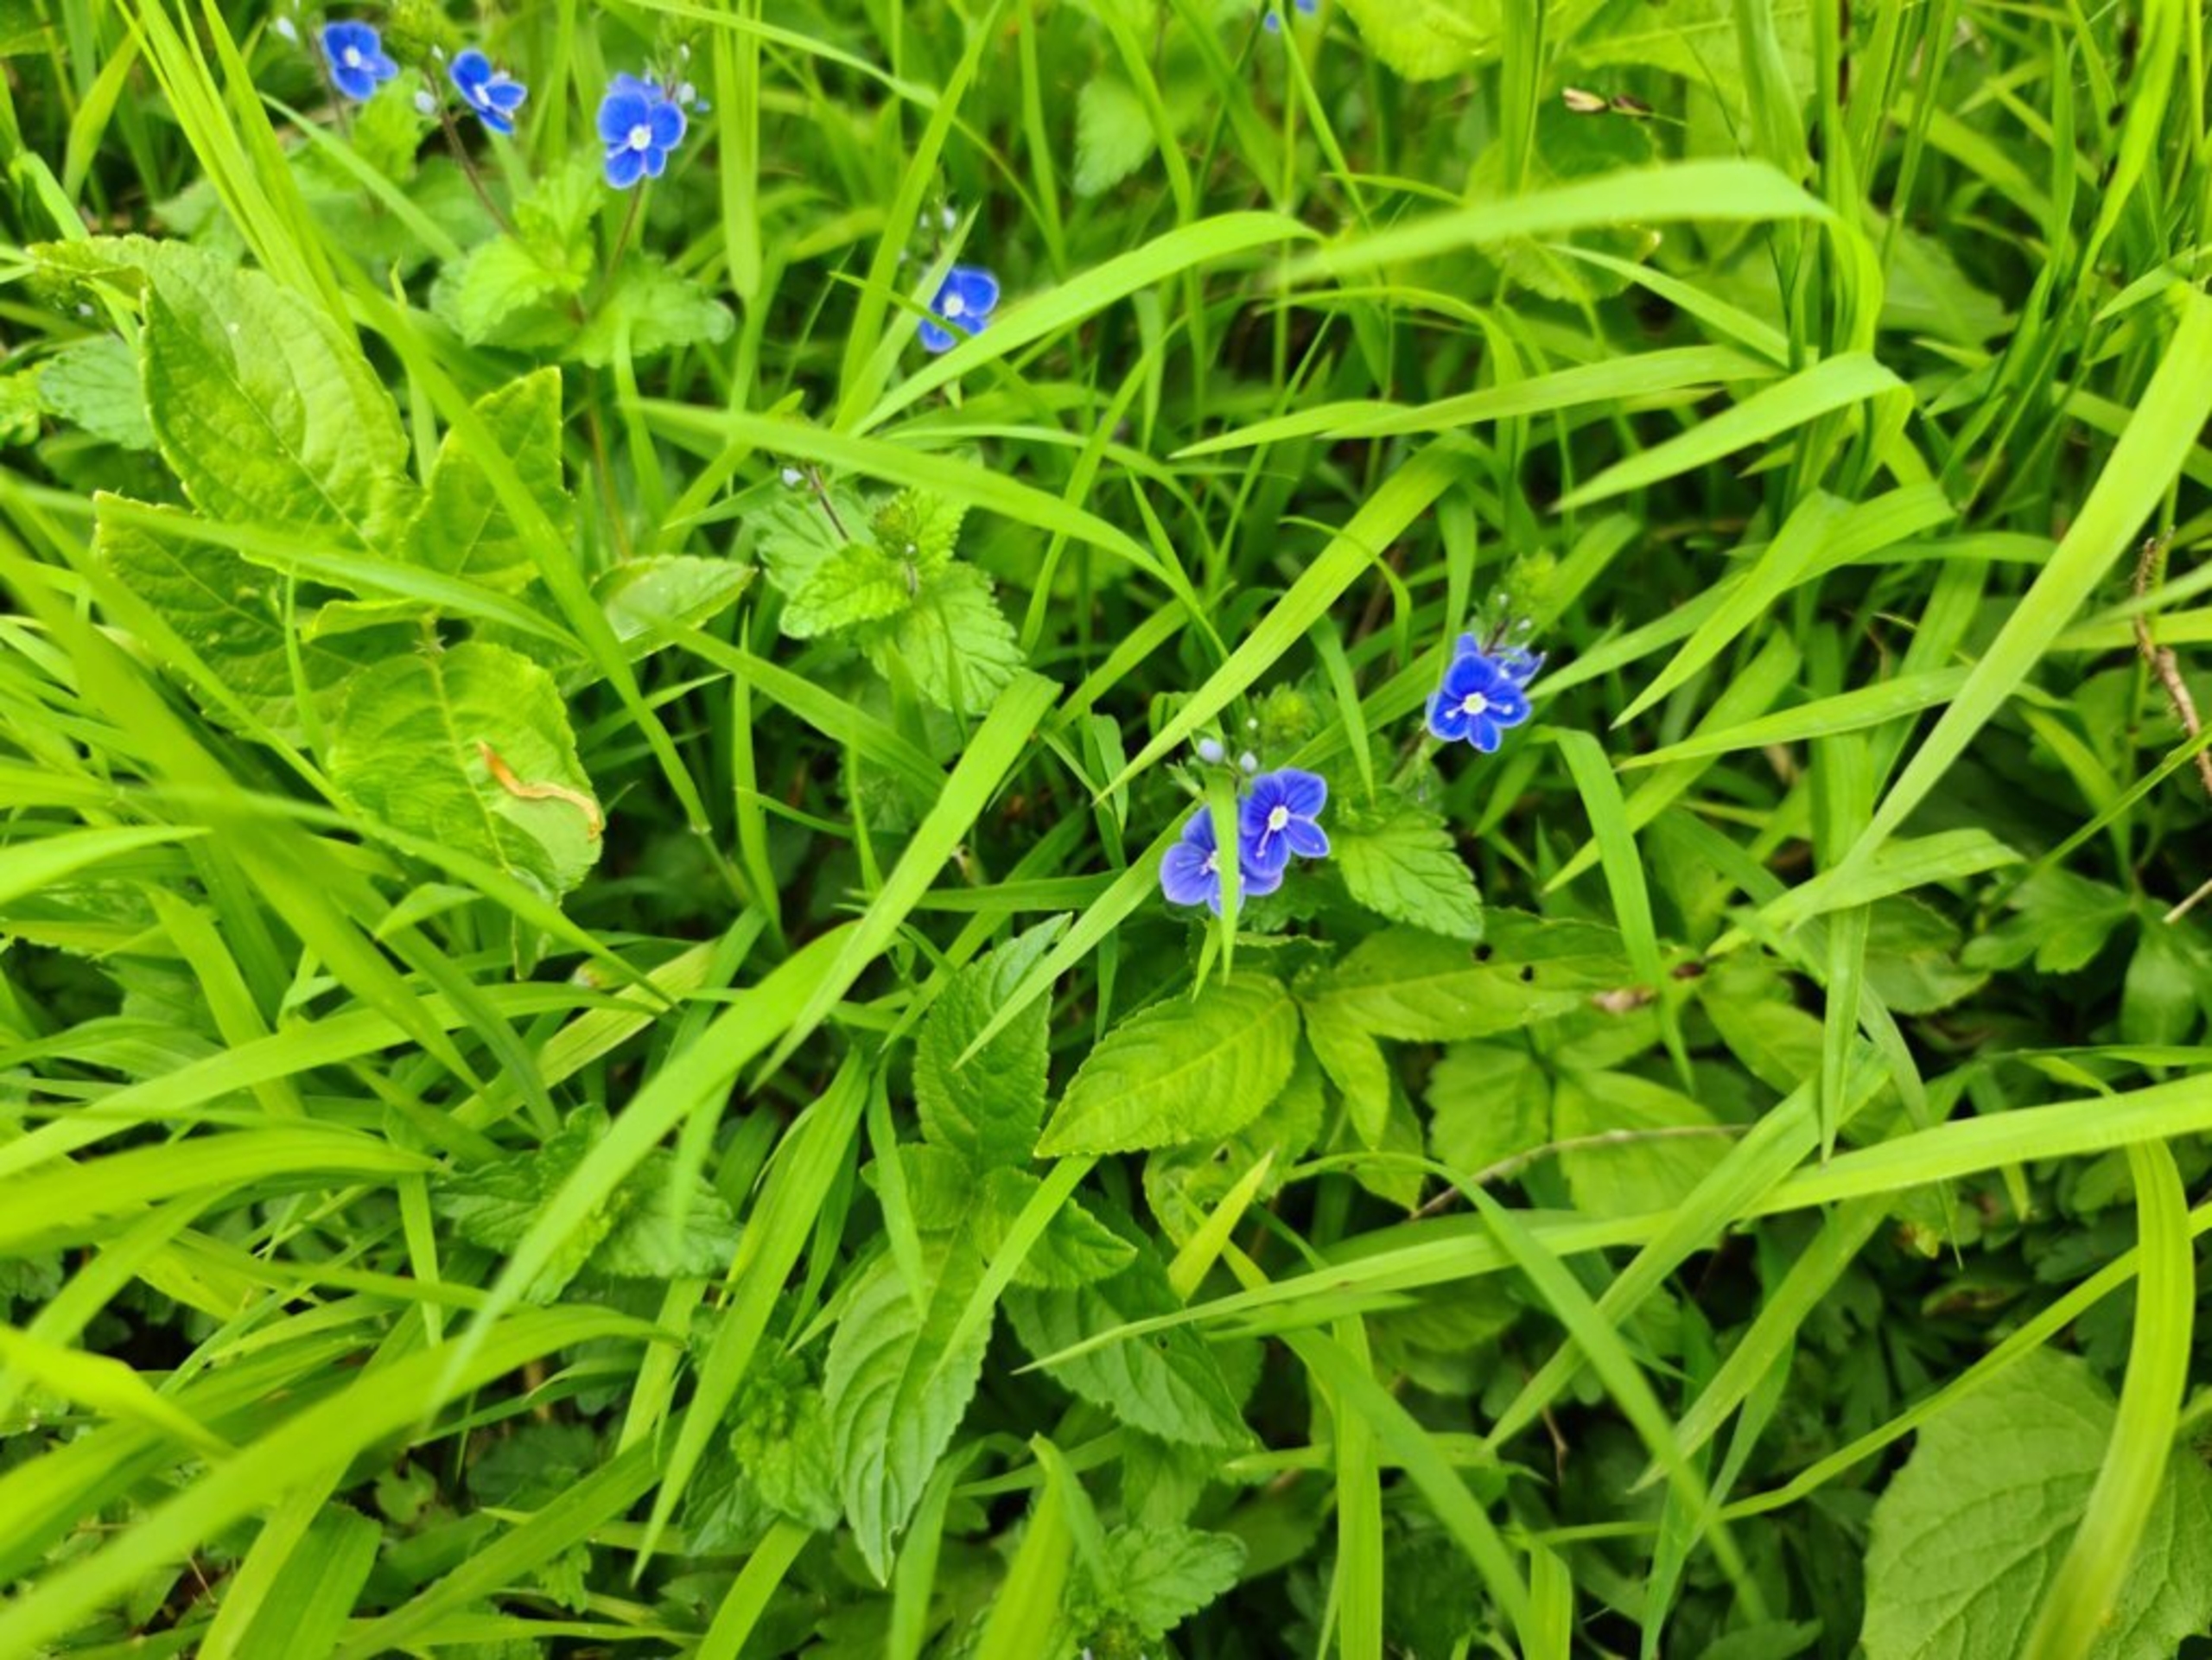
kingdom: Plantae
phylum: Tracheophyta
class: Magnoliopsida
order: Lamiales
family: Plantaginaceae
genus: Veronica
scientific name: Veronica chamaedrys
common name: Tveskægget ærenpris
